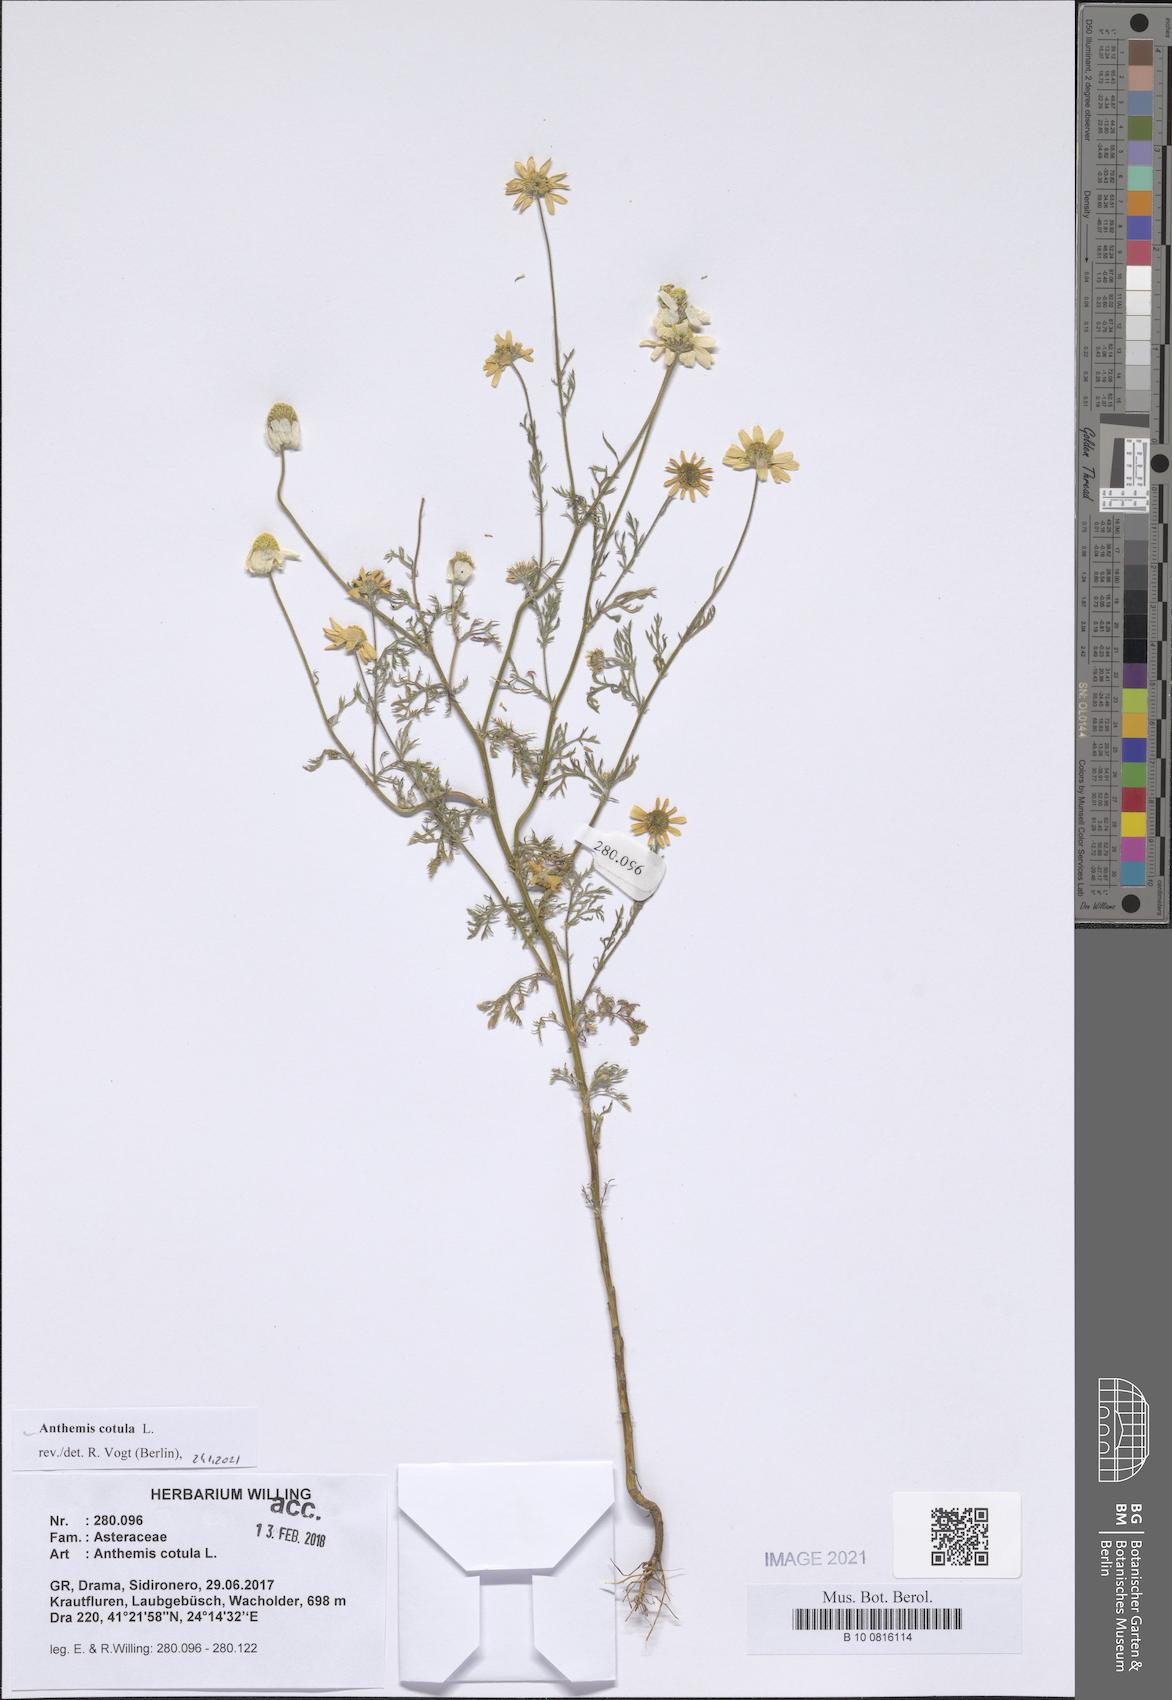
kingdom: Plantae
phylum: Tracheophyta
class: Magnoliopsida
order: Asterales
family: Asteraceae
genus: Anthemis
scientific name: Anthemis cotula
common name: Stinking chamomile
